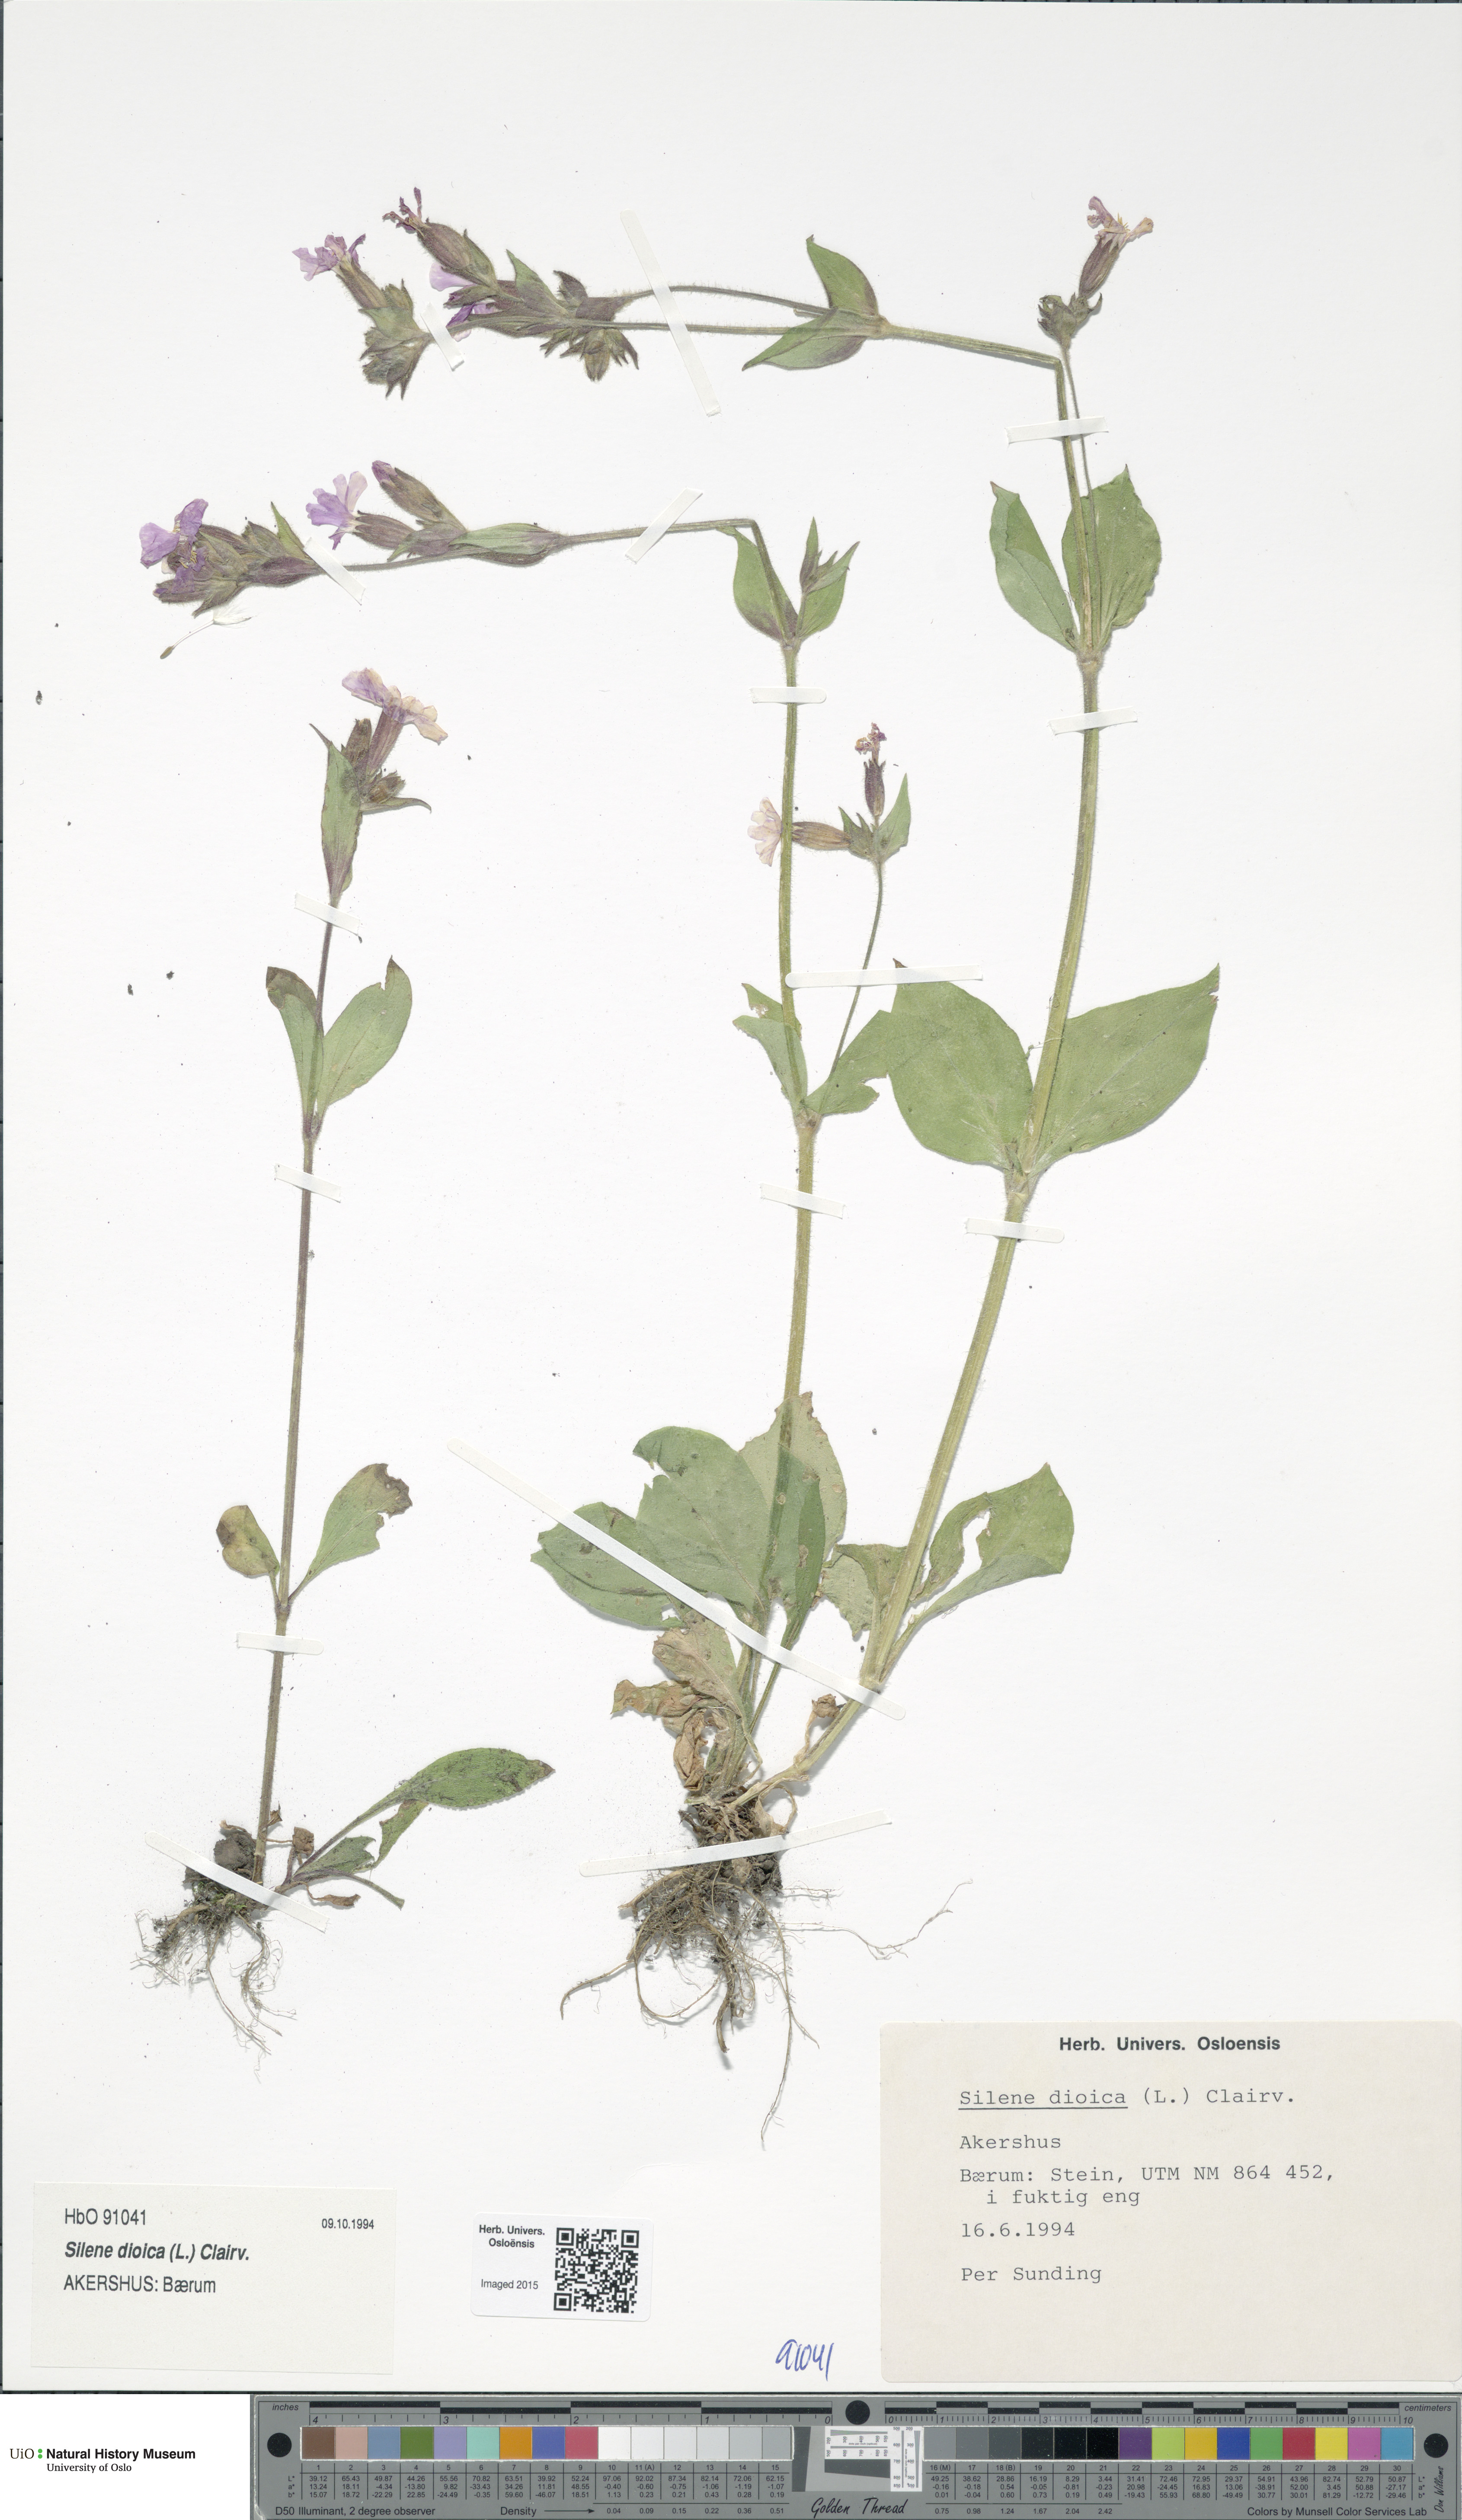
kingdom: Plantae
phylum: Tracheophyta
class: Magnoliopsida
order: Caryophyllales
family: Caryophyllaceae
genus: Silene
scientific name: Silene dioica
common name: Red campion
